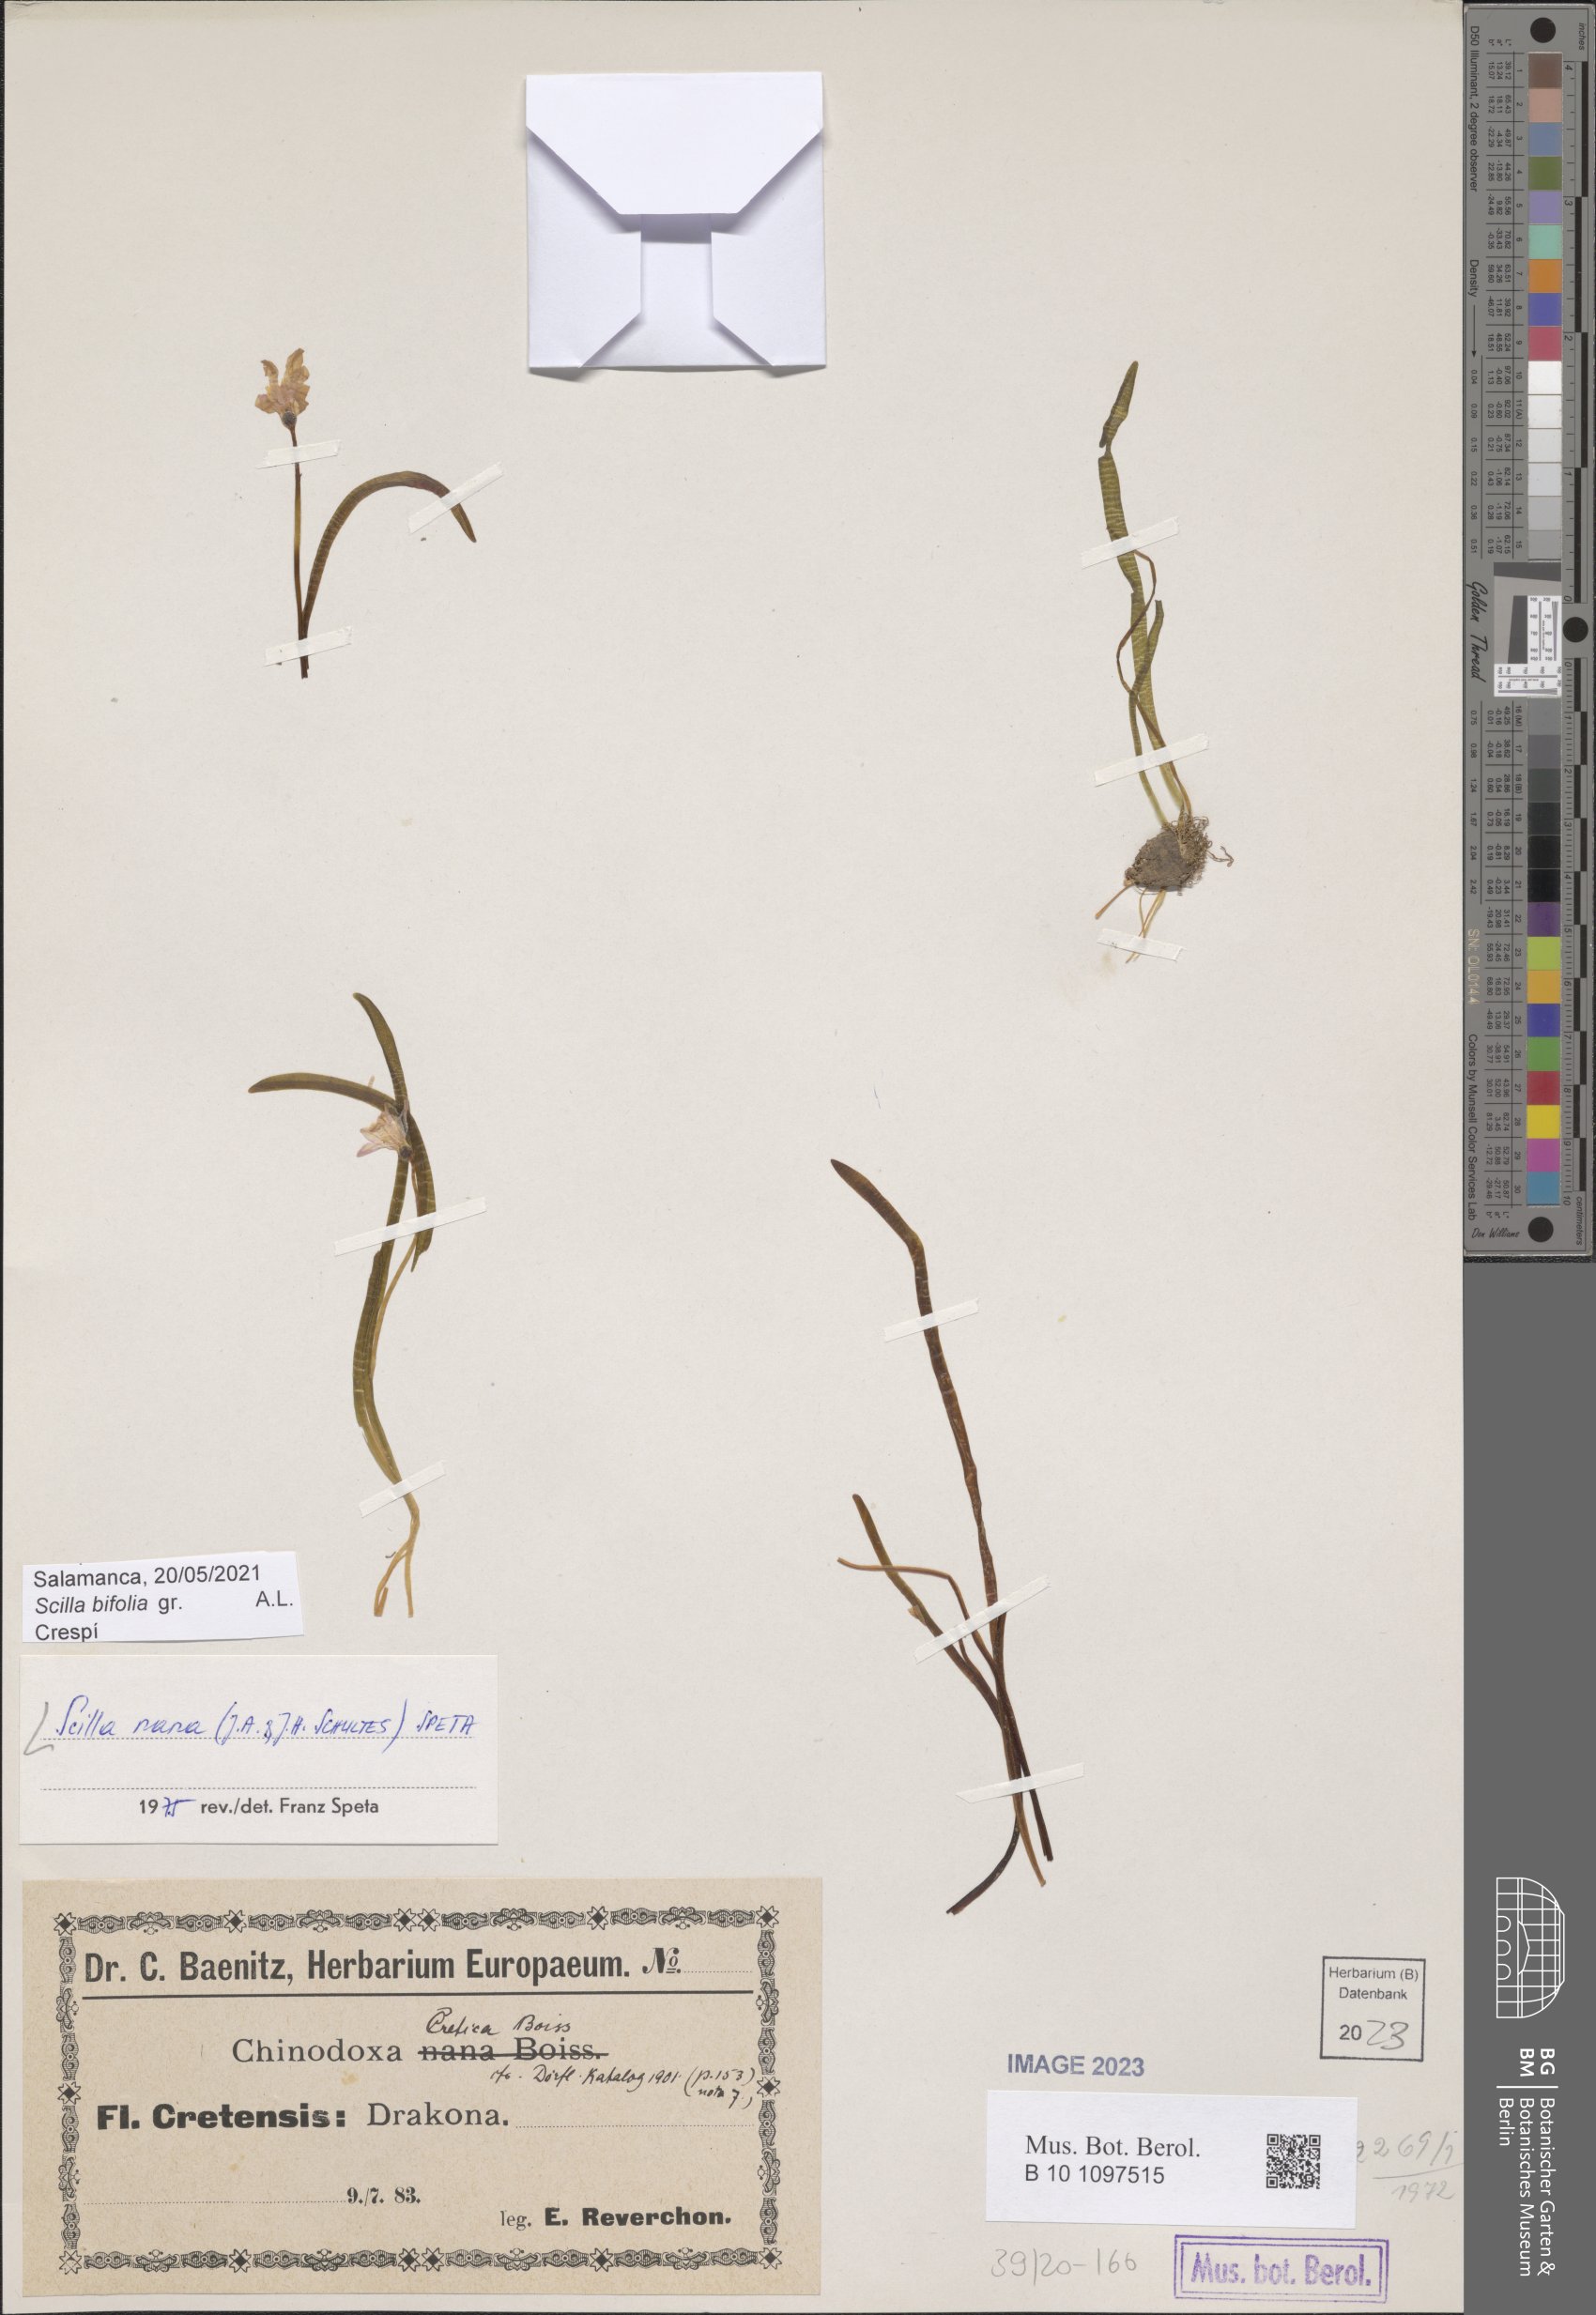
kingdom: Plantae
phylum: Tracheophyta
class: Liliopsida
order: Asparagales
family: Asparagaceae
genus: Scilla
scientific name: Scilla nana
